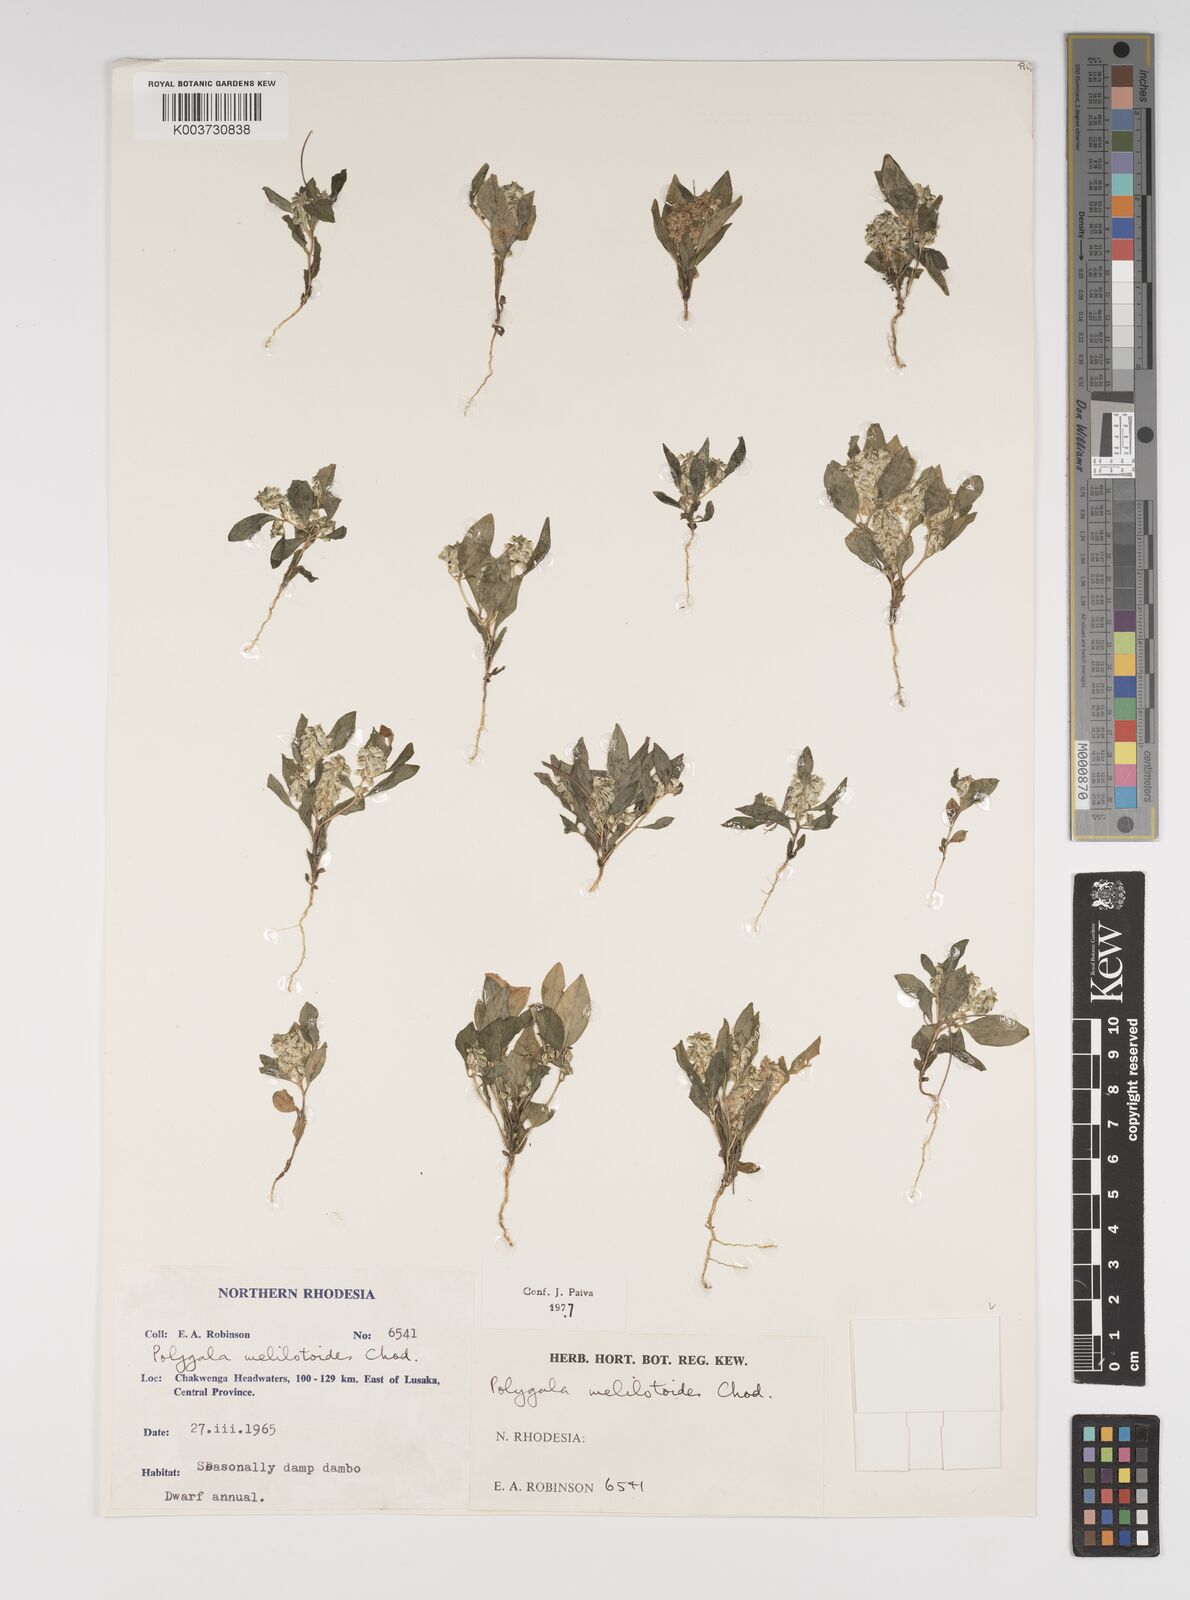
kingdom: Plantae
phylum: Tracheophyta
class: Magnoliopsida
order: Fabales
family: Polygalaceae
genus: Polygala
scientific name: Polygala melilotoides
